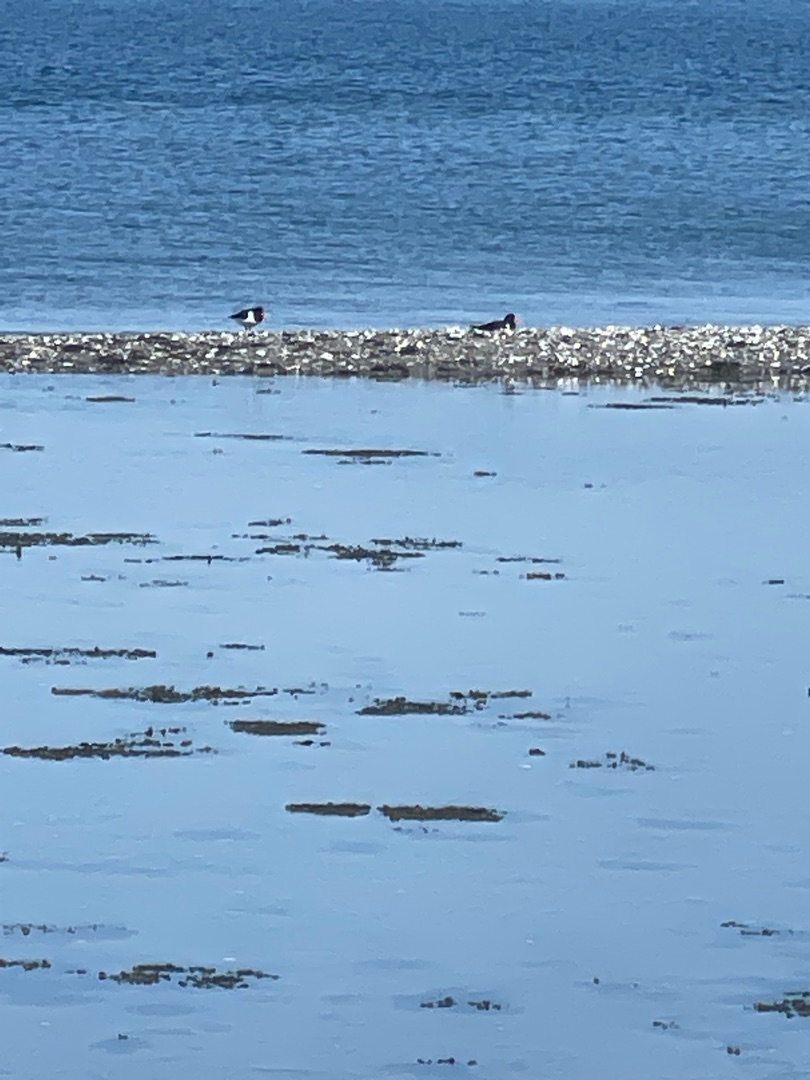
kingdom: Animalia
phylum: Chordata
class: Aves
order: Charadriiformes
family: Haematopodidae
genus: Haematopus
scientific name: Haematopus ostralegus
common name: Strandskade
